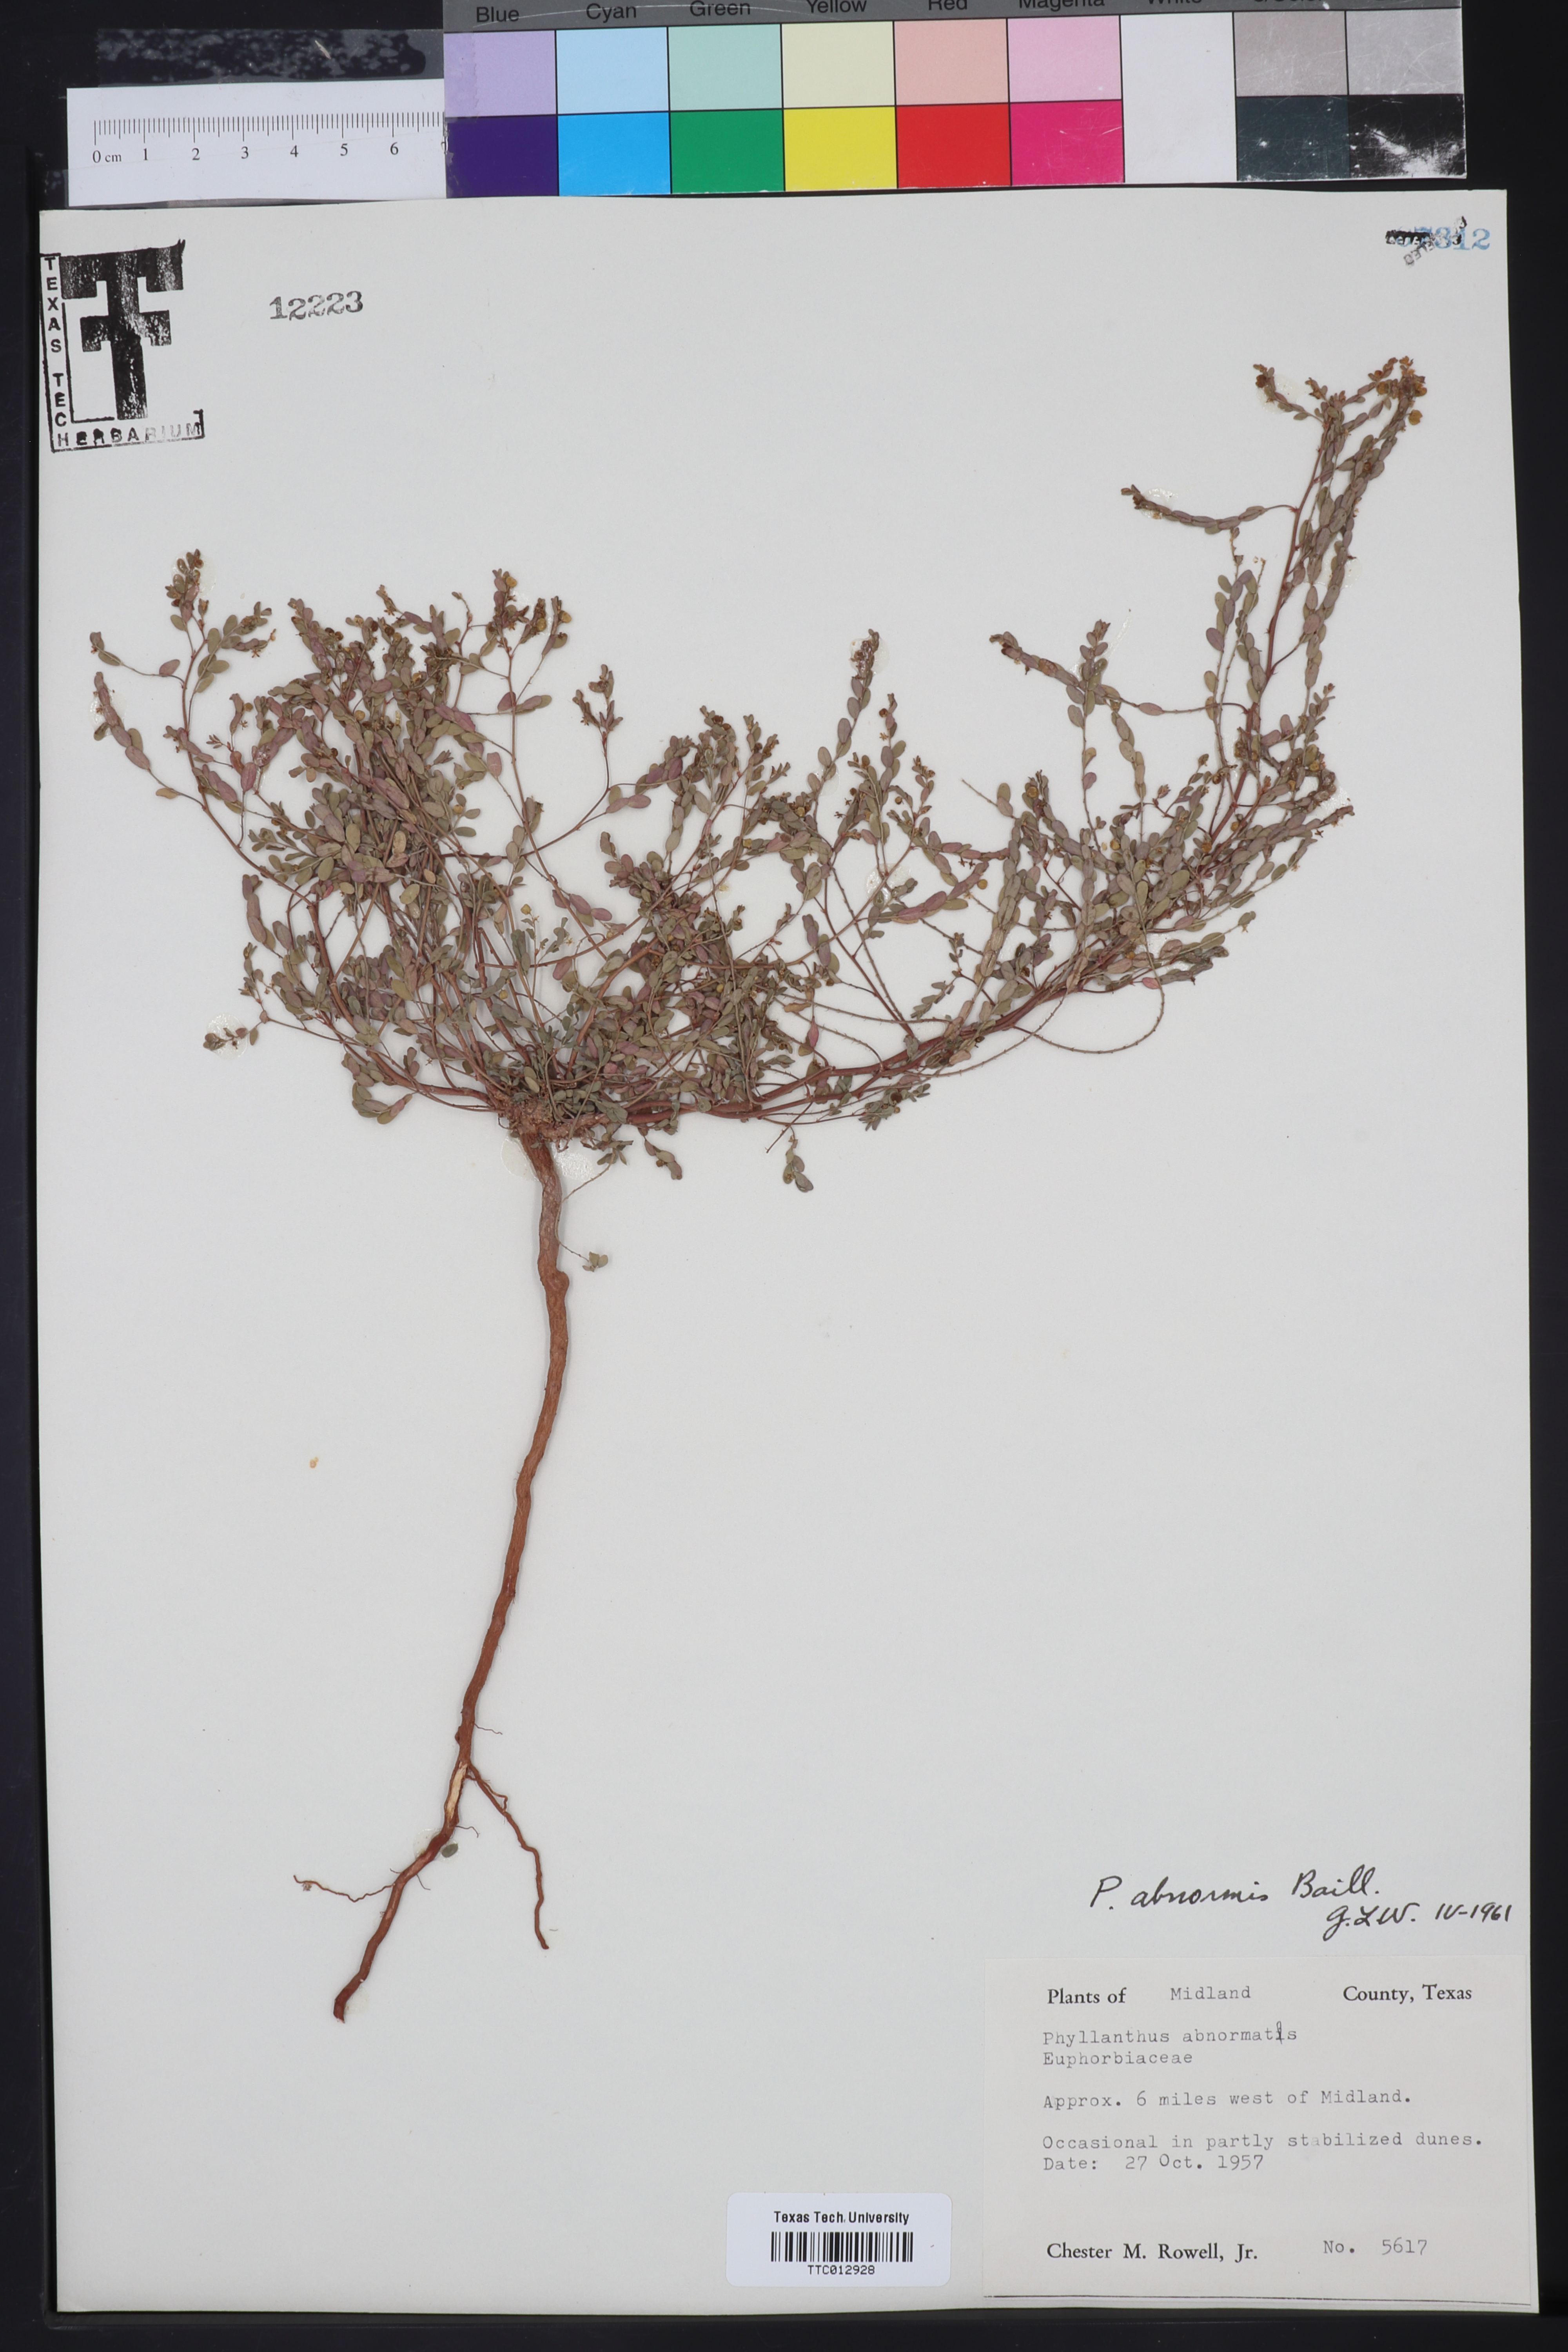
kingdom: Plantae
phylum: Tracheophyta
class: Magnoliopsida
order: Malpighiales
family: Phyllanthaceae
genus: Phyllanthus
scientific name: Phyllanthus abnormis
